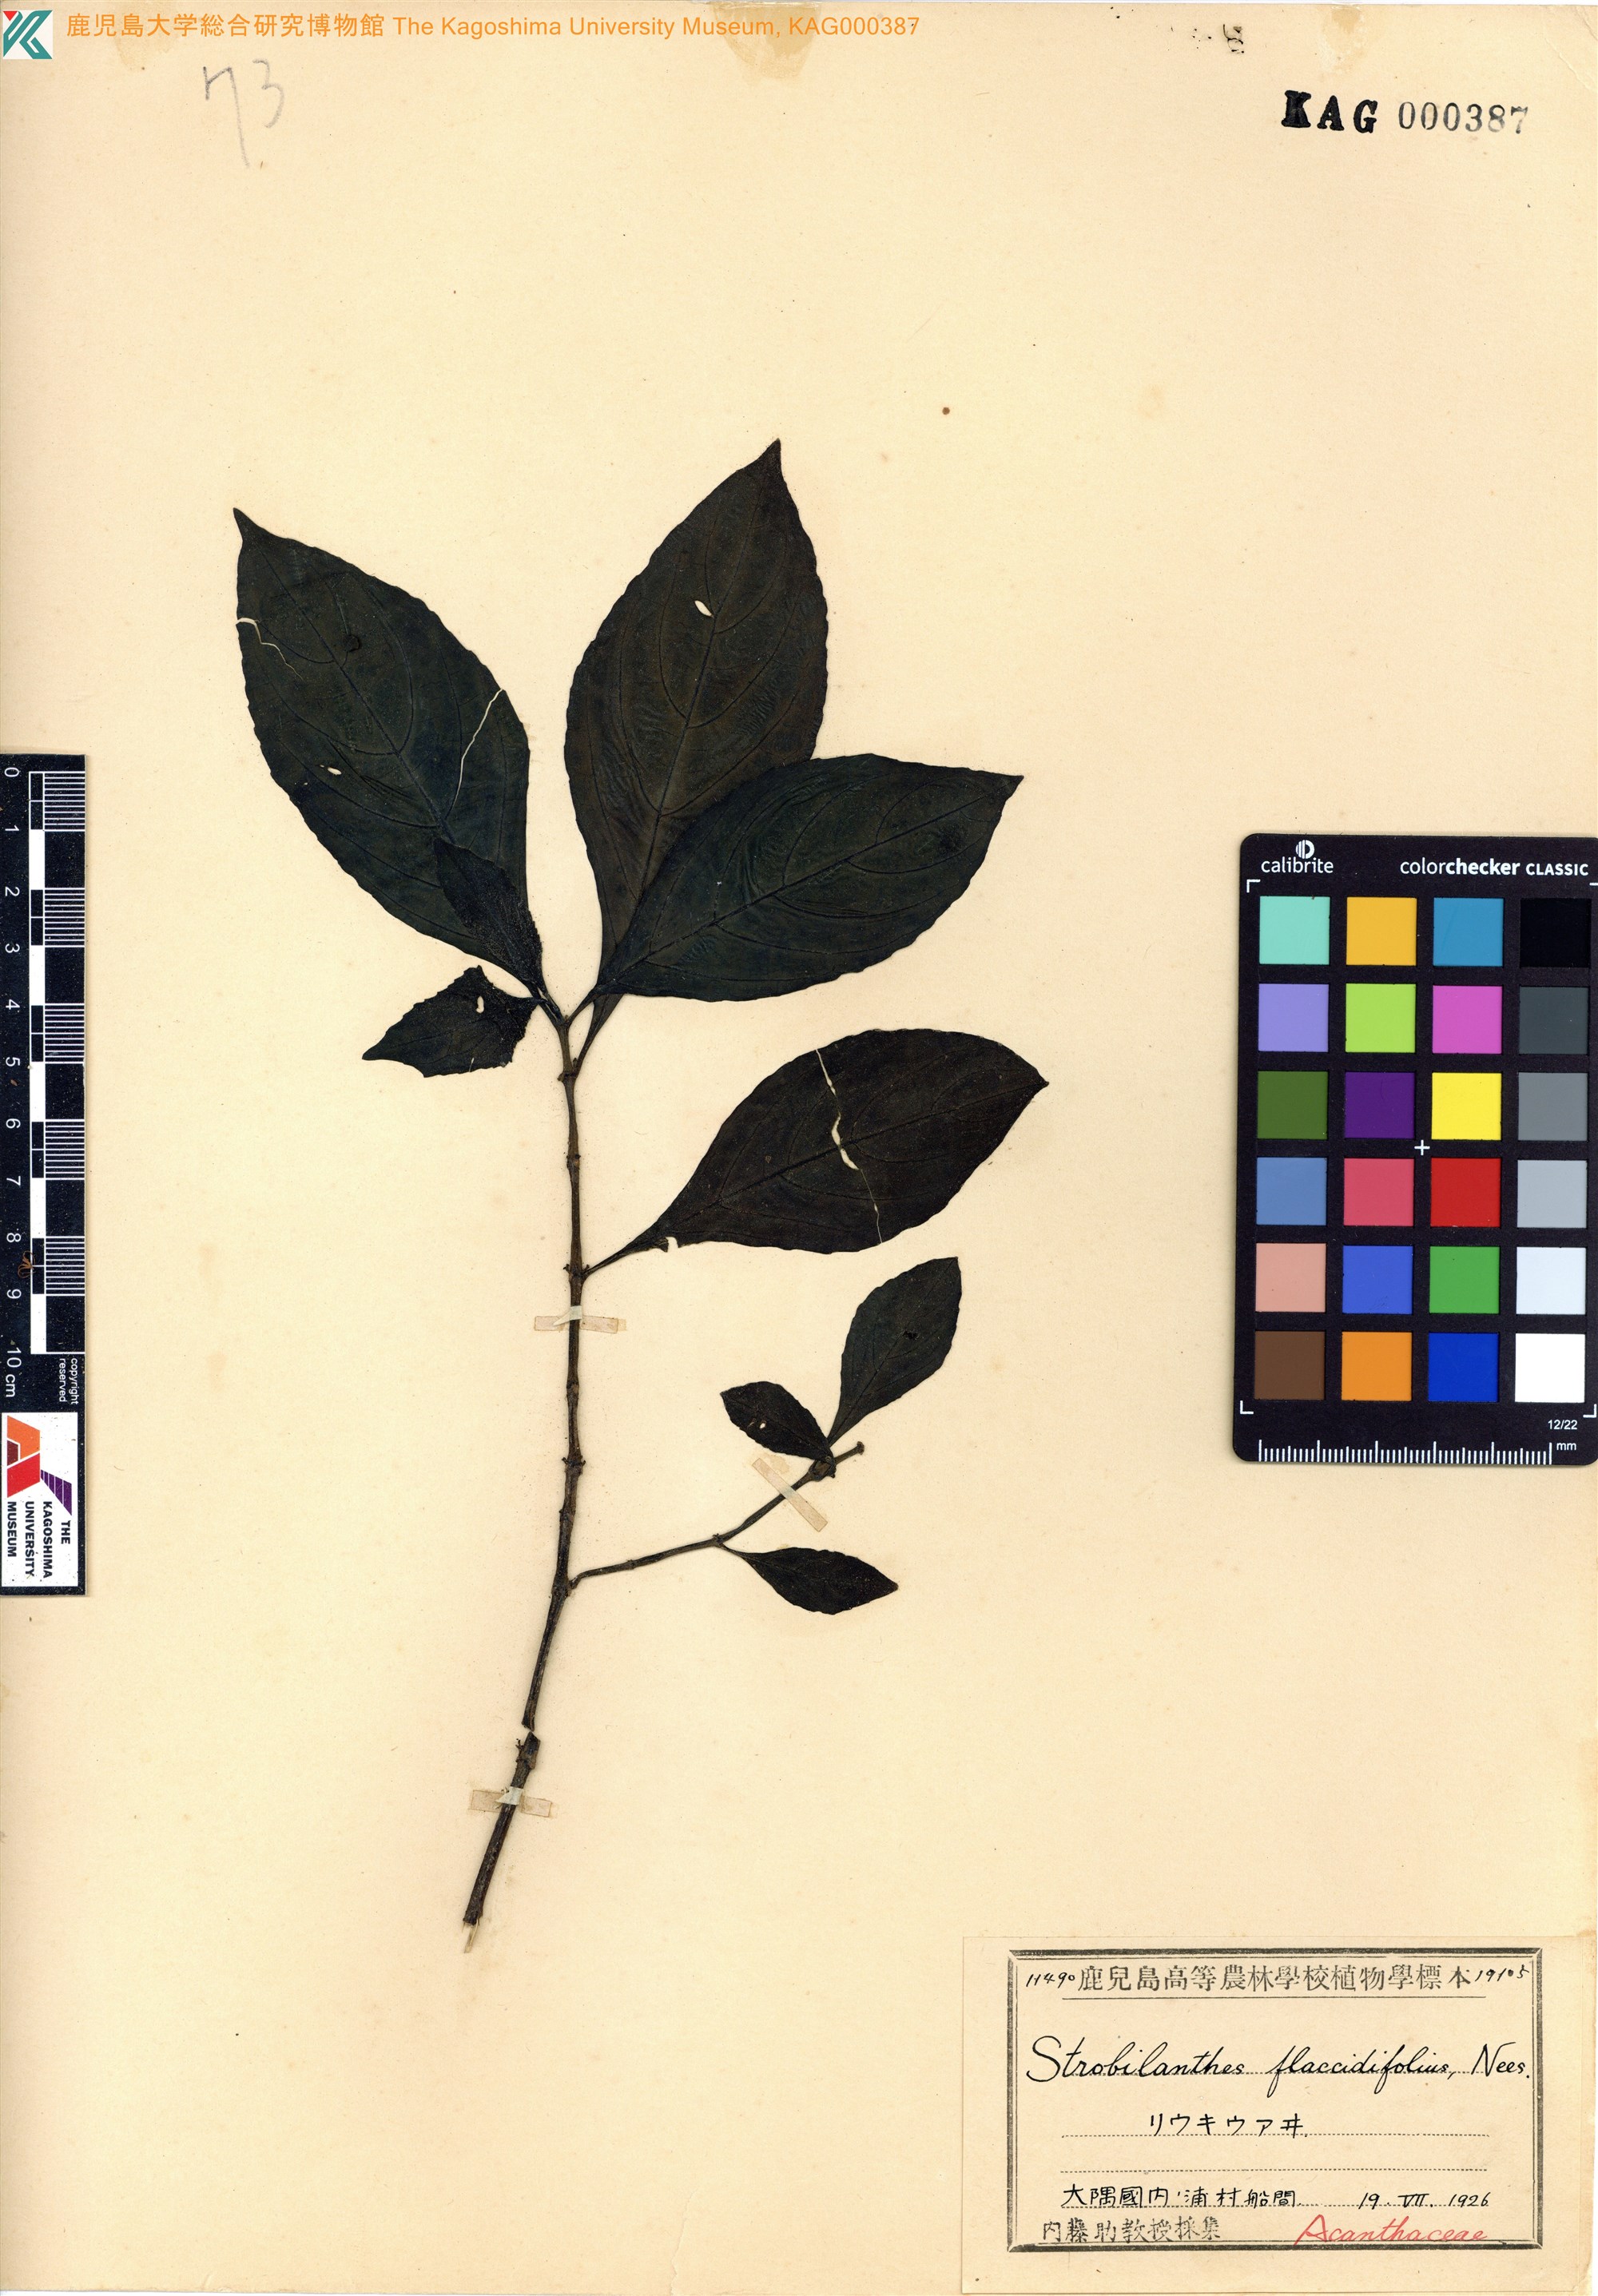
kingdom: Plantae
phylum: Tracheophyta
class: Magnoliopsida
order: Lamiales
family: Acanthaceae
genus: Strobilanthes
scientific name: Strobilanthes cusia
